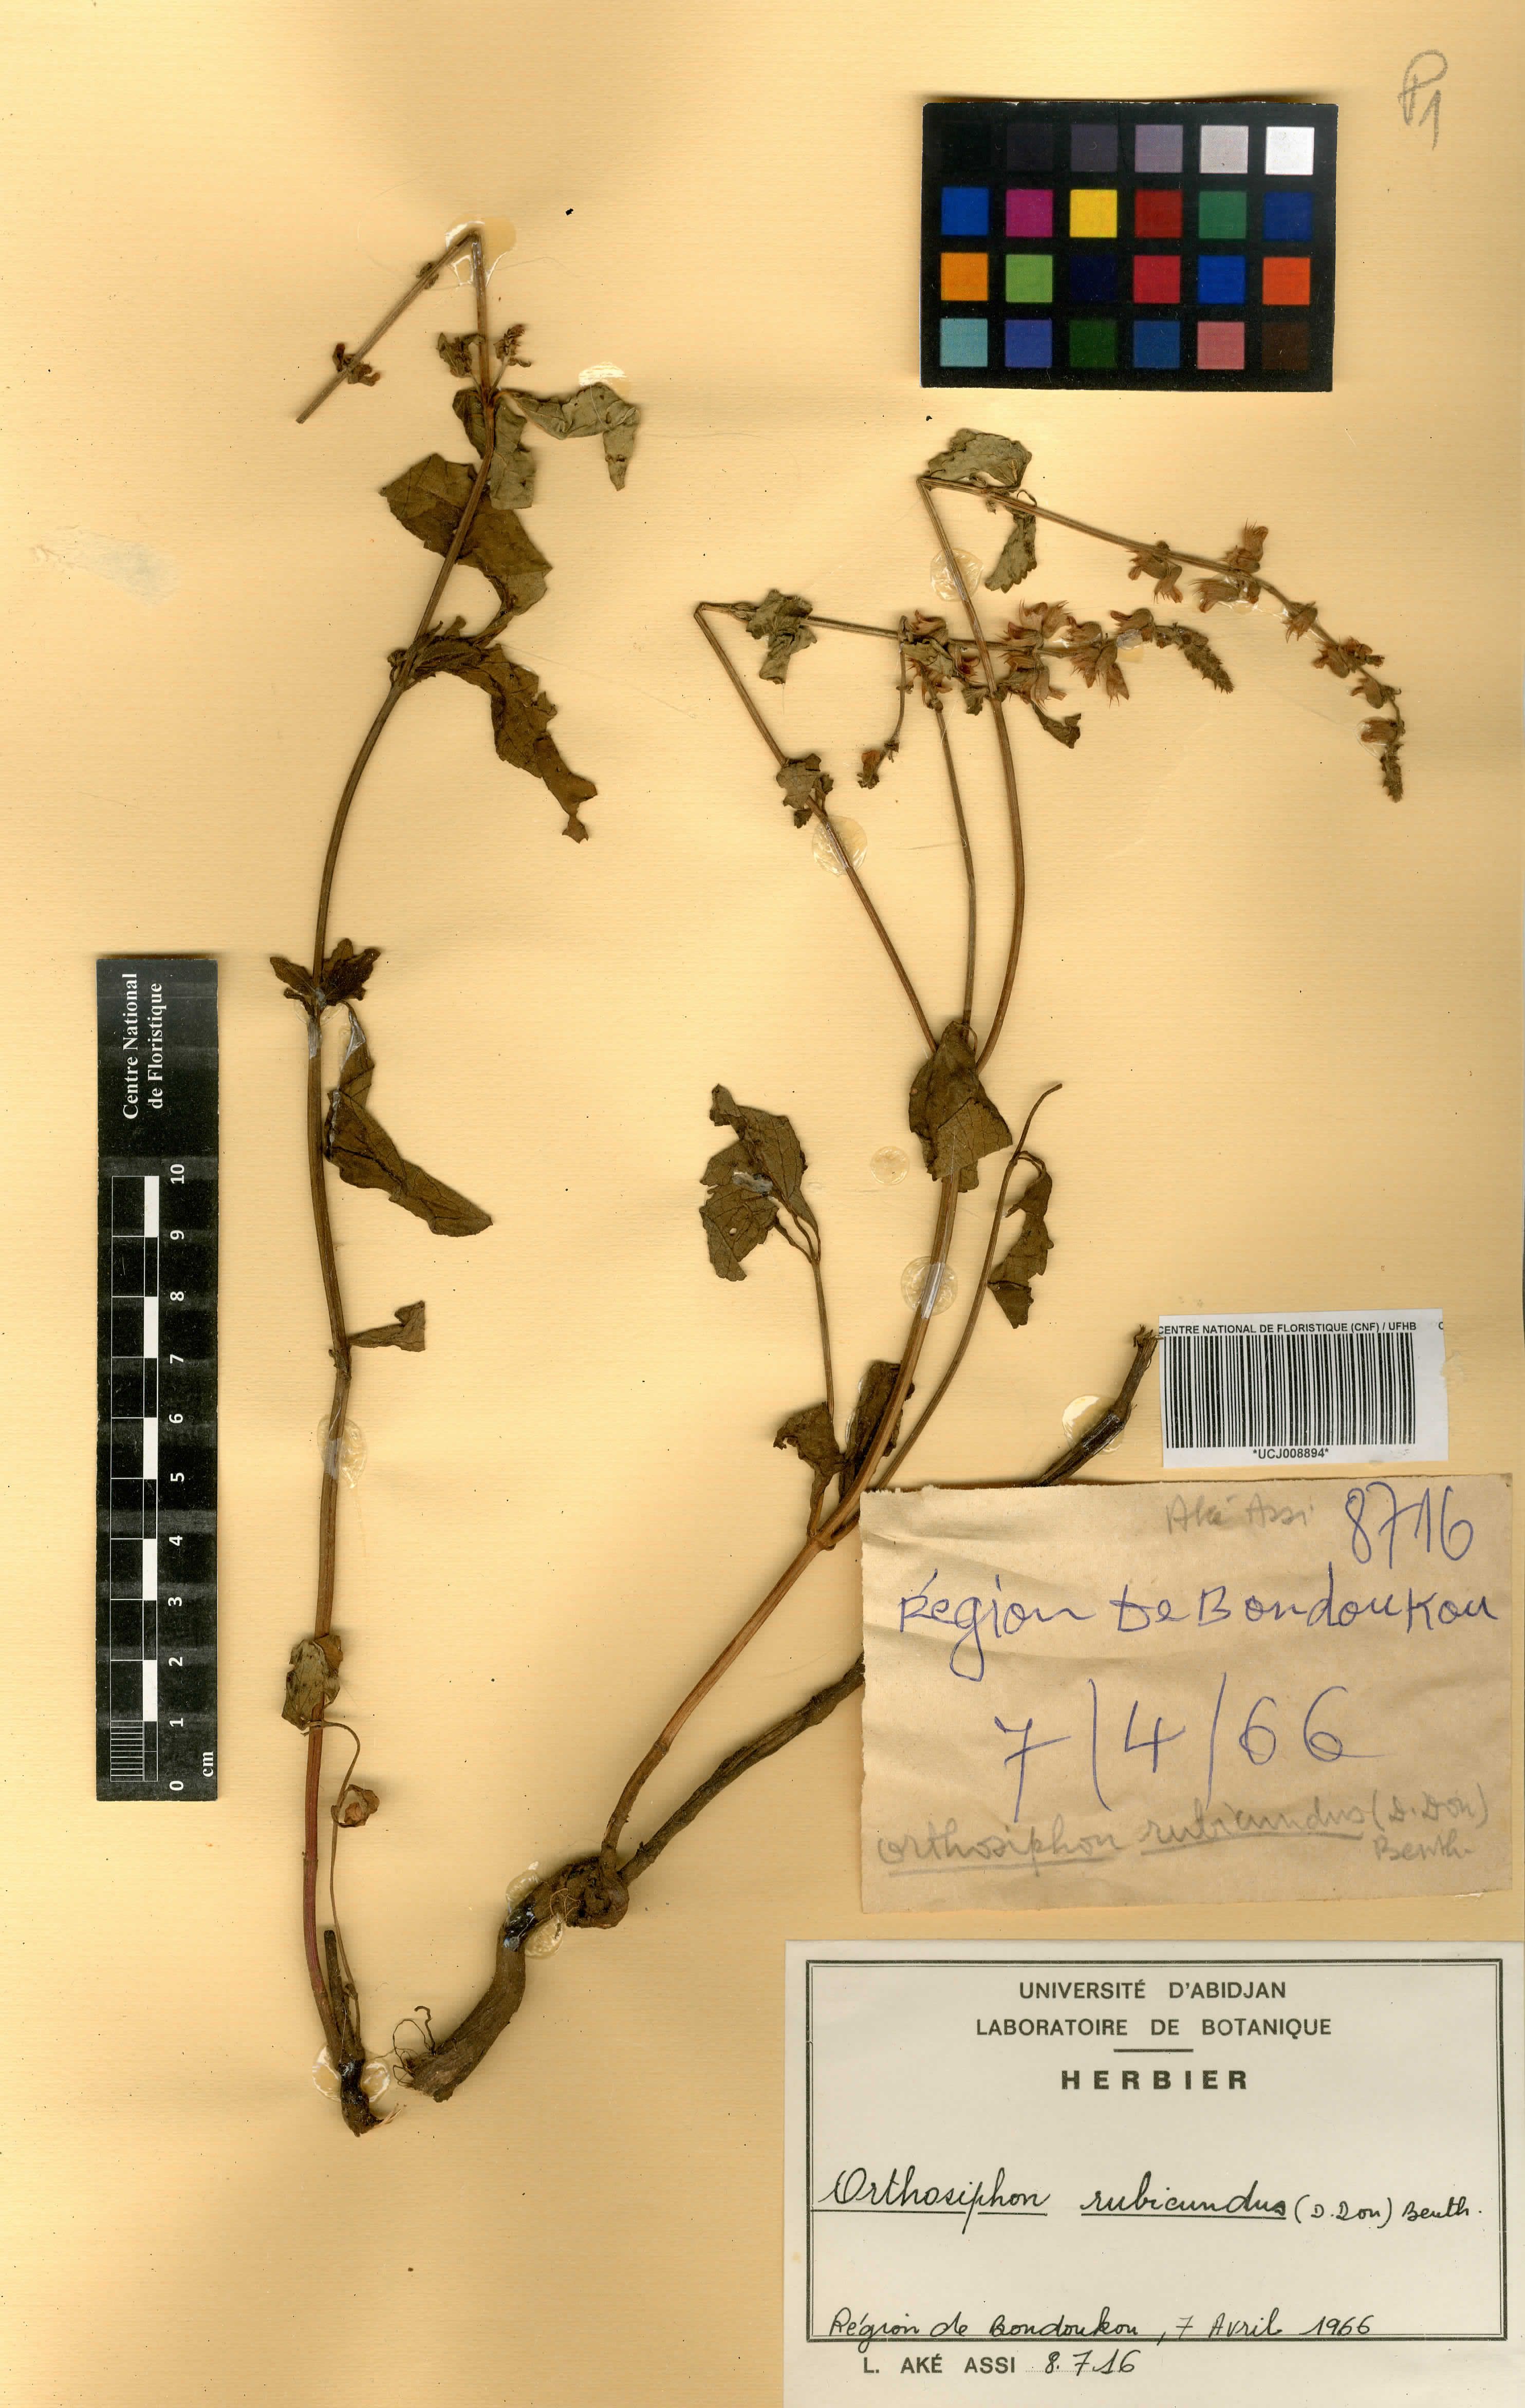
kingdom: Plantae
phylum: Tracheophyta
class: Magnoliopsida
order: Lamiales
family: Lamiaceae
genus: Orthosiphon
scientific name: Orthosiphon rubicundus
